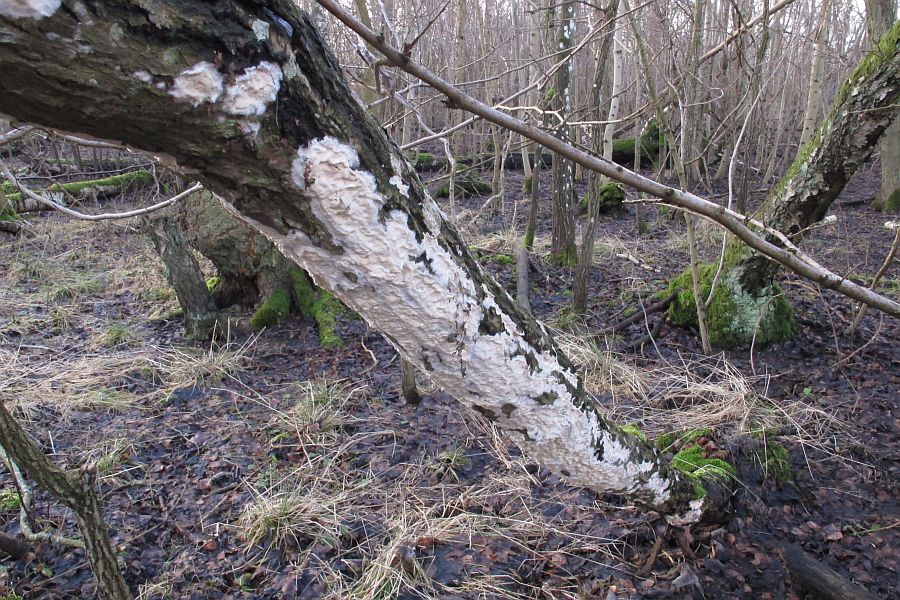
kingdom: Fungi
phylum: Basidiomycota
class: Agaricomycetes
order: Agaricales
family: Cyphellaceae
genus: Granulobasidium
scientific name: Granulobasidium vellereum
